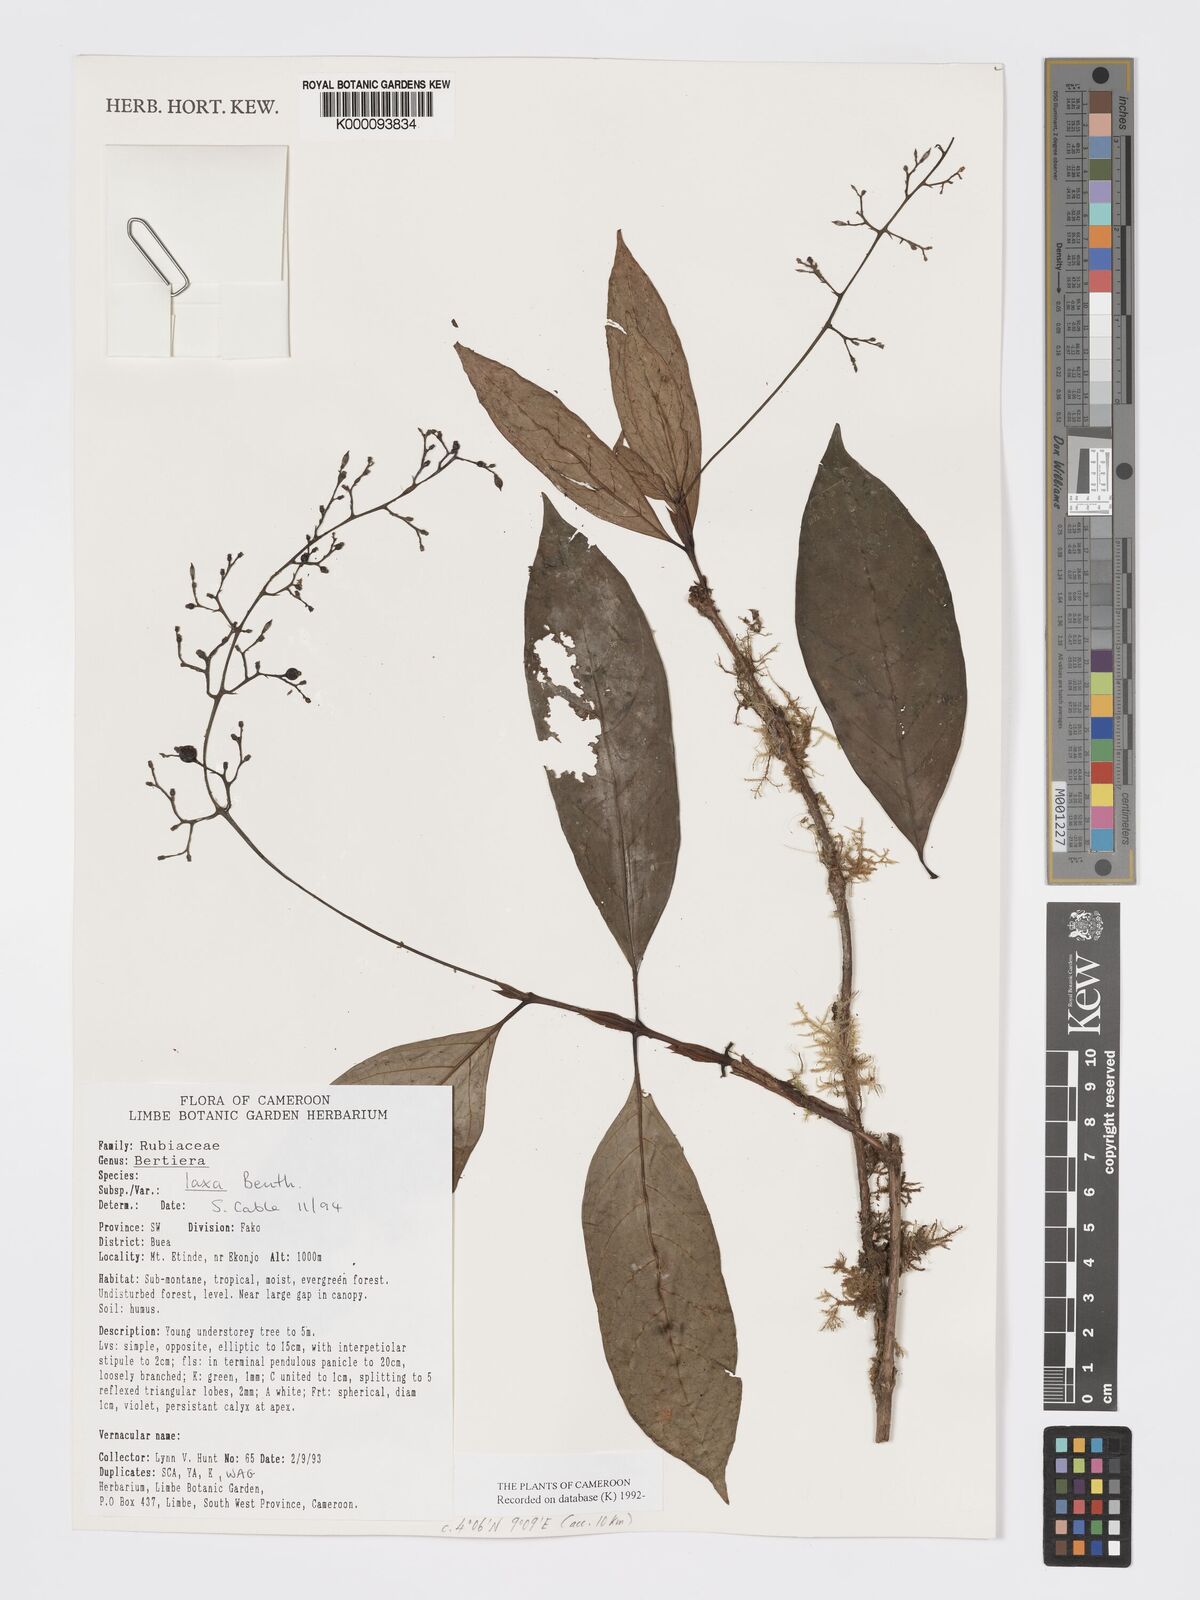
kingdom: Plantae
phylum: Tracheophyta
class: Magnoliopsida
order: Gentianales
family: Rubiaceae
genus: Bertiera
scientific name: Bertiera laxa
